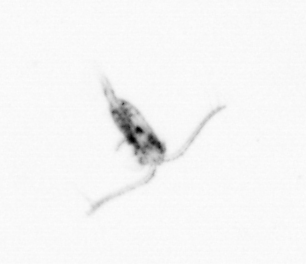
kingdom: Animalia
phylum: Arthropoda
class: Copepoda
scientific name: Copepoda
